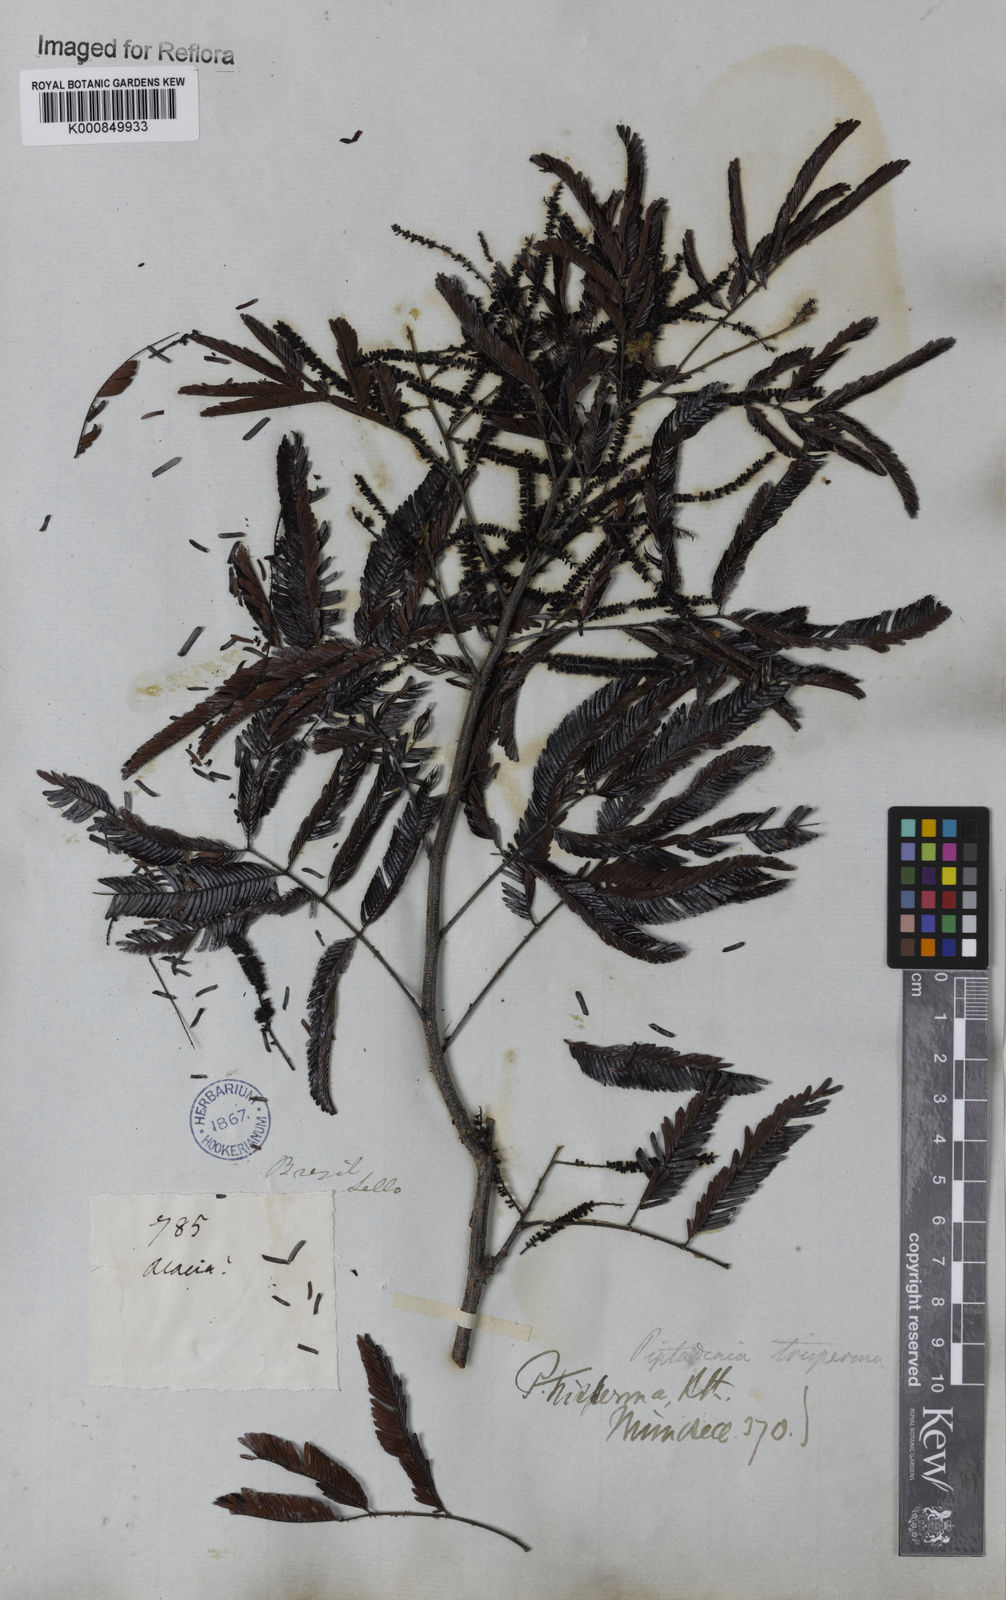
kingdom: Plantae
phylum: Tracheophyta
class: Magnoliopsida
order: Fabales
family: Fabaceae
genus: Piptadenia
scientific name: Piptadenia trisperma
